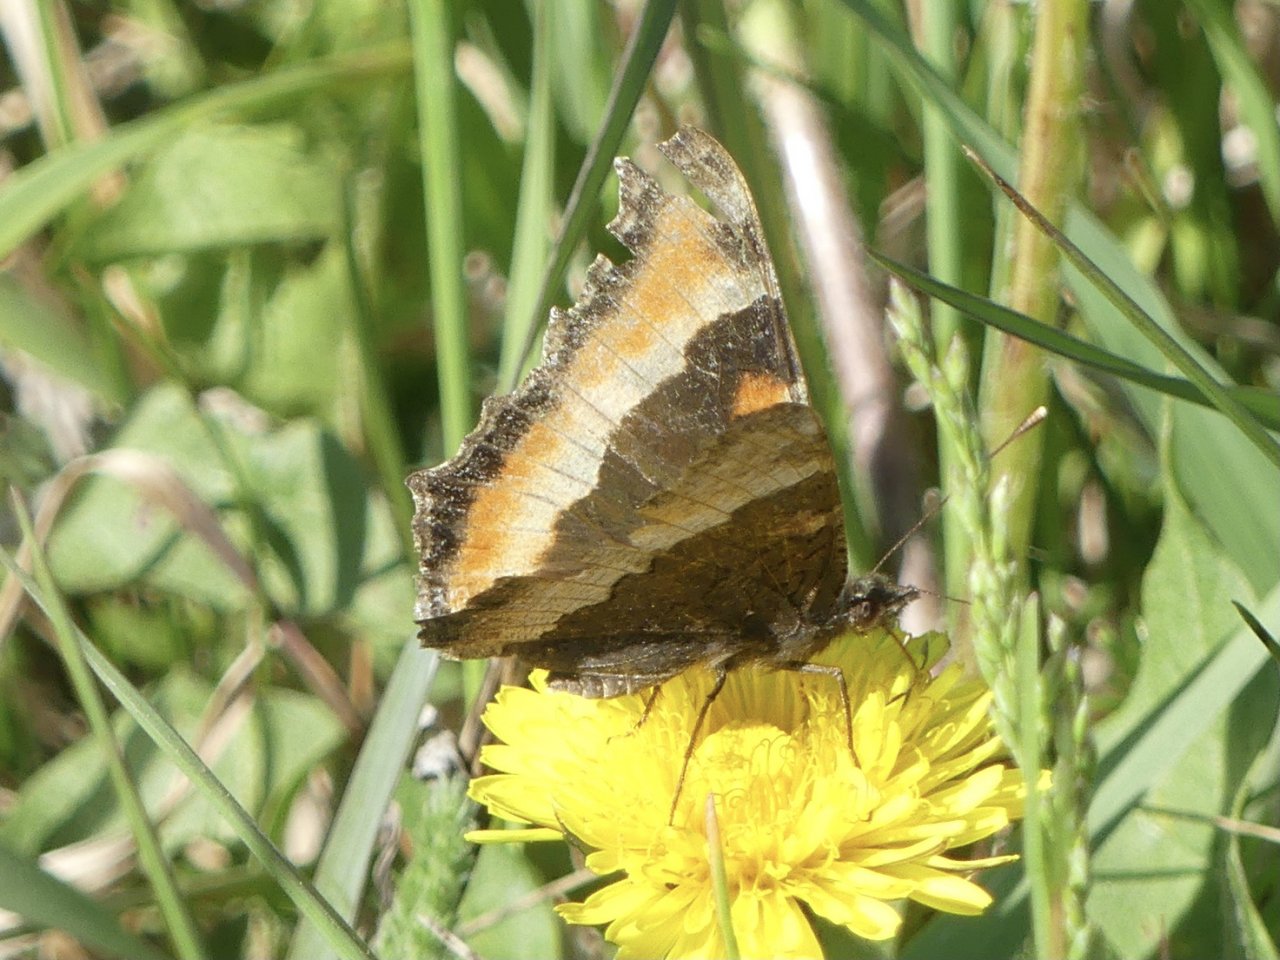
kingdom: Animalia
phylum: Arthropoda
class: Insecta
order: Lepidoptera
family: Nymphalidae
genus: Aglais
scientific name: Aglais milberti
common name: Milbert's Tortoiseshell
